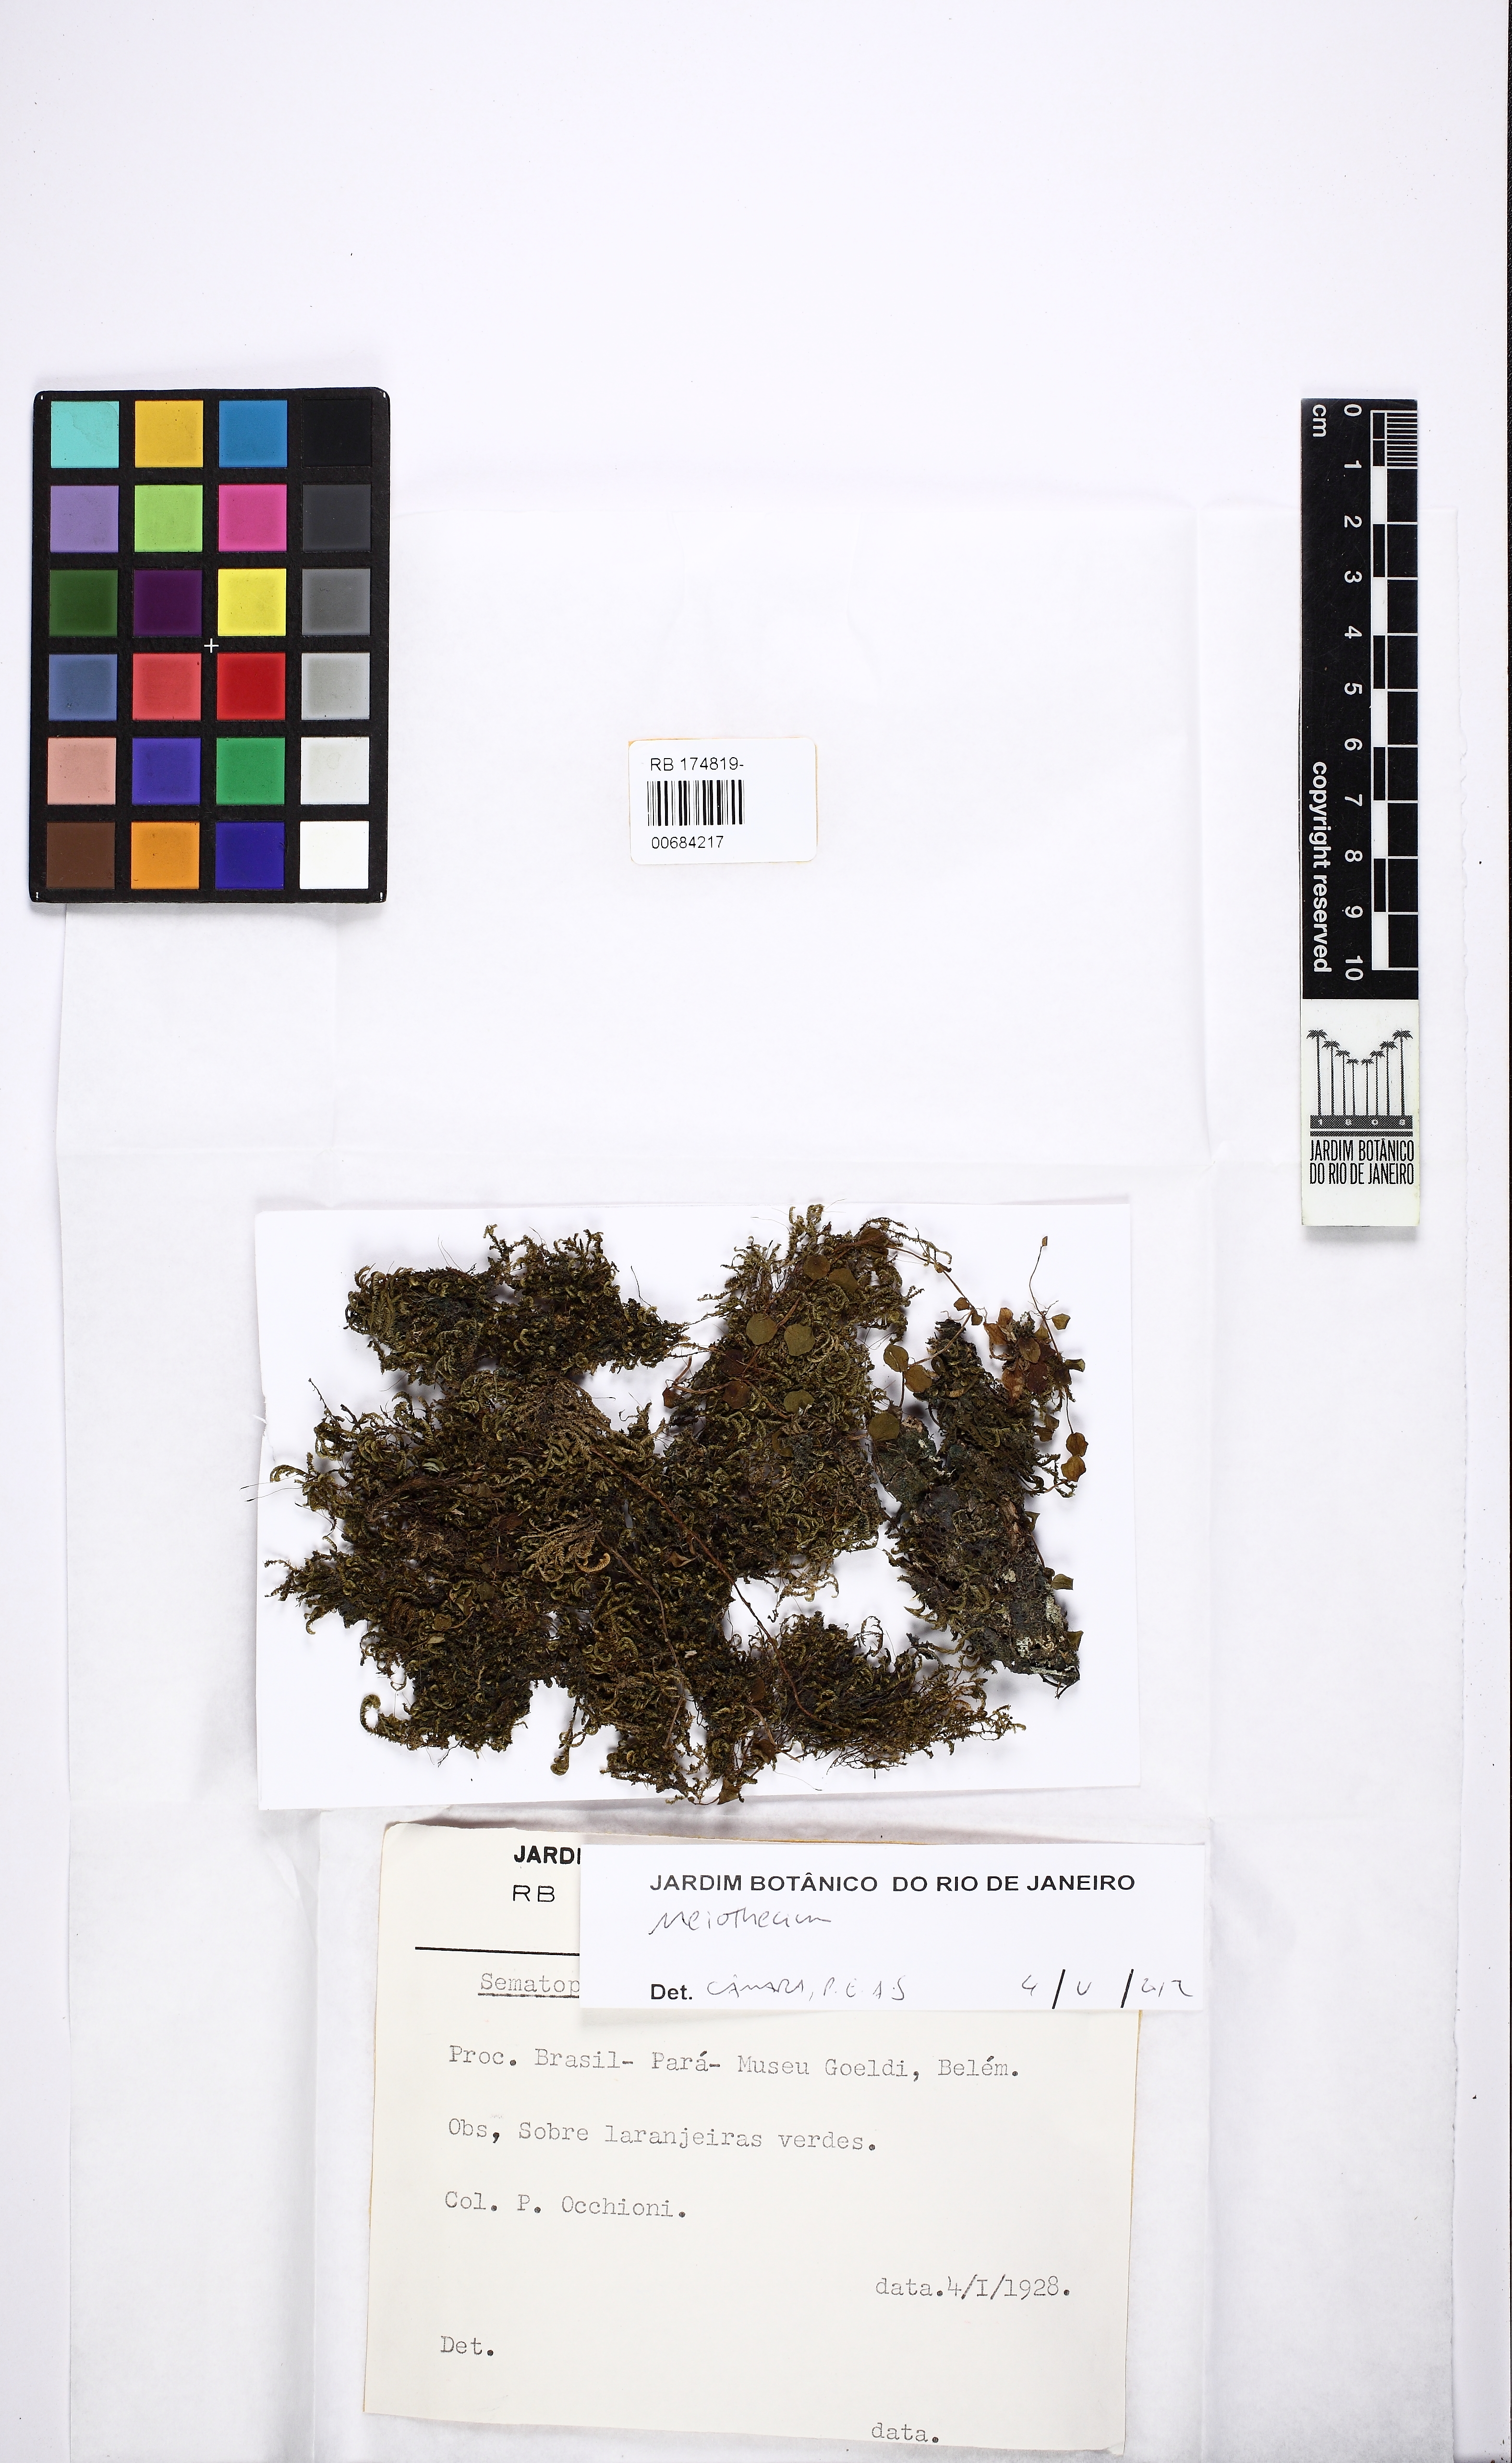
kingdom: Plantae
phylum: Bryophyta
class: Bryopsida
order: Hypnales
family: Sematophyllaceae
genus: Meiothecium
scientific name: Meiothecium
